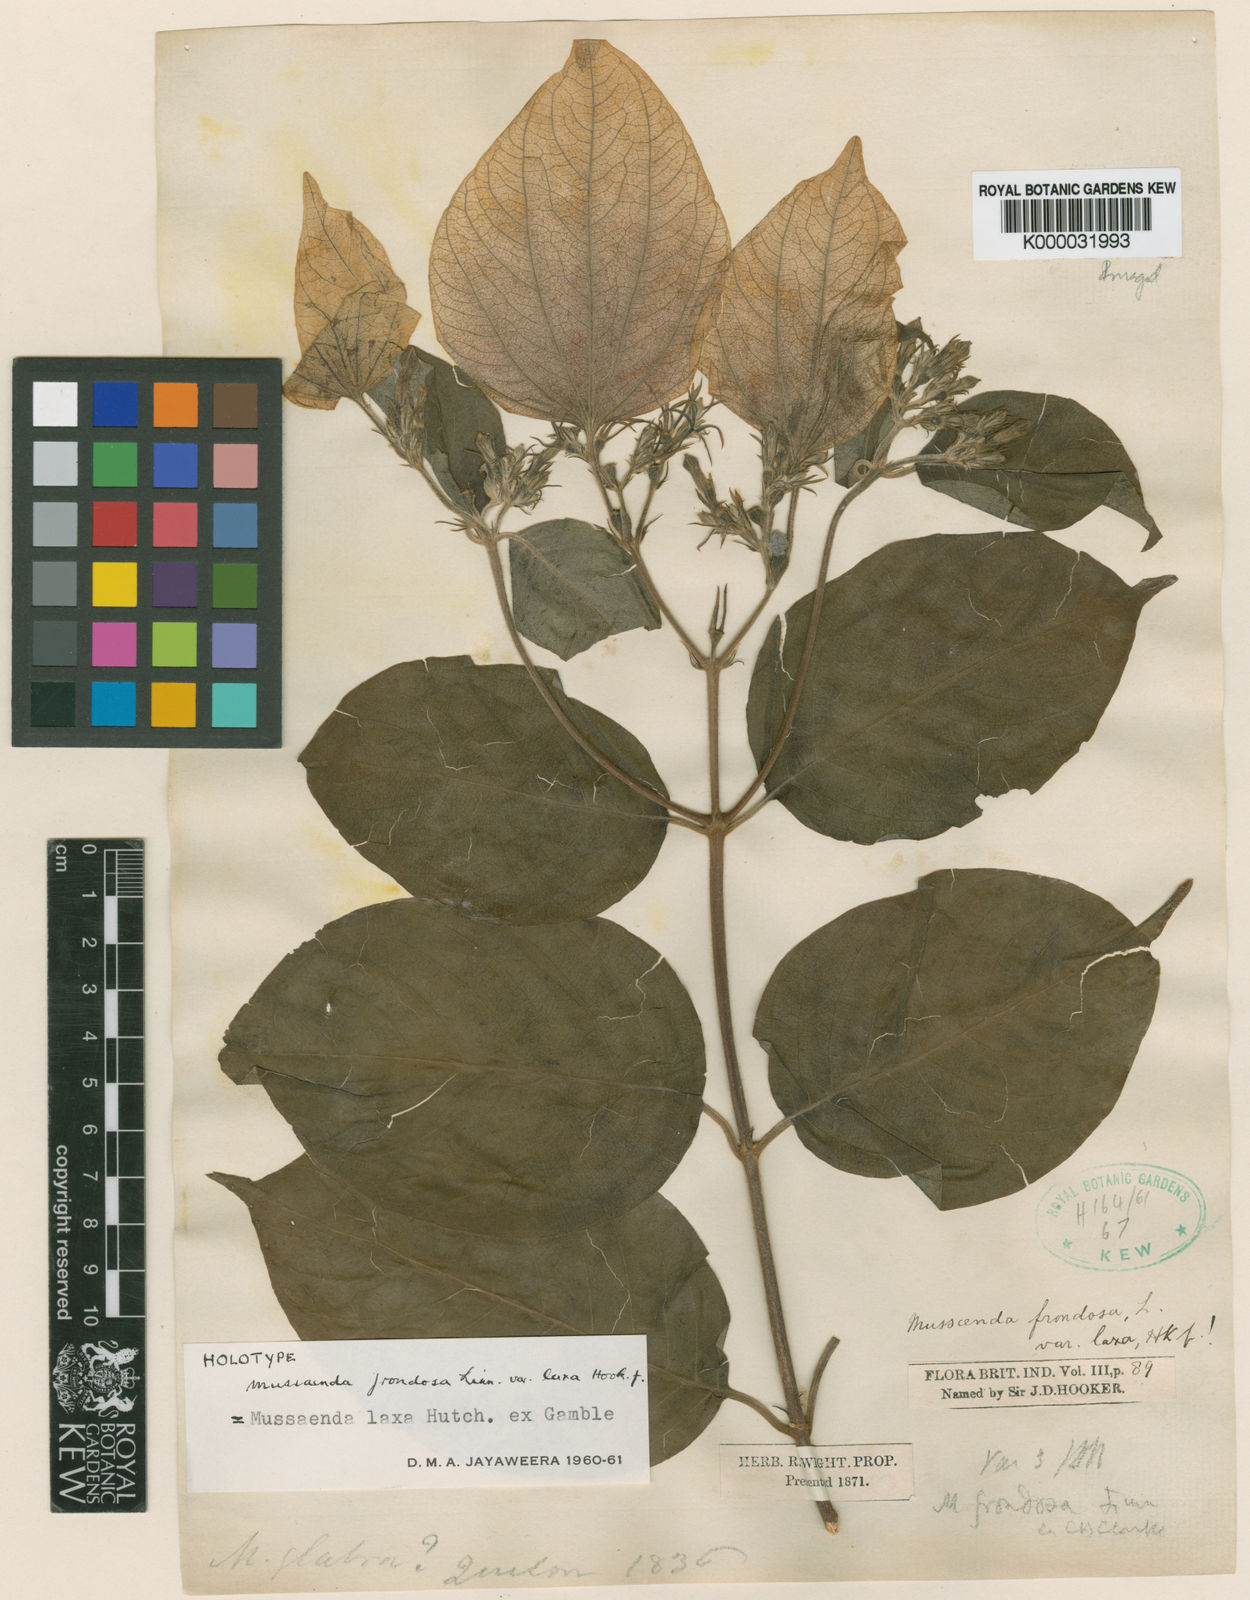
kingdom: Plantae
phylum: Tracheophyta
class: Magnoliopsida
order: Gentianales
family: Rubiaceae
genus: Mussaenda
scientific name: Mussaenda laxa
